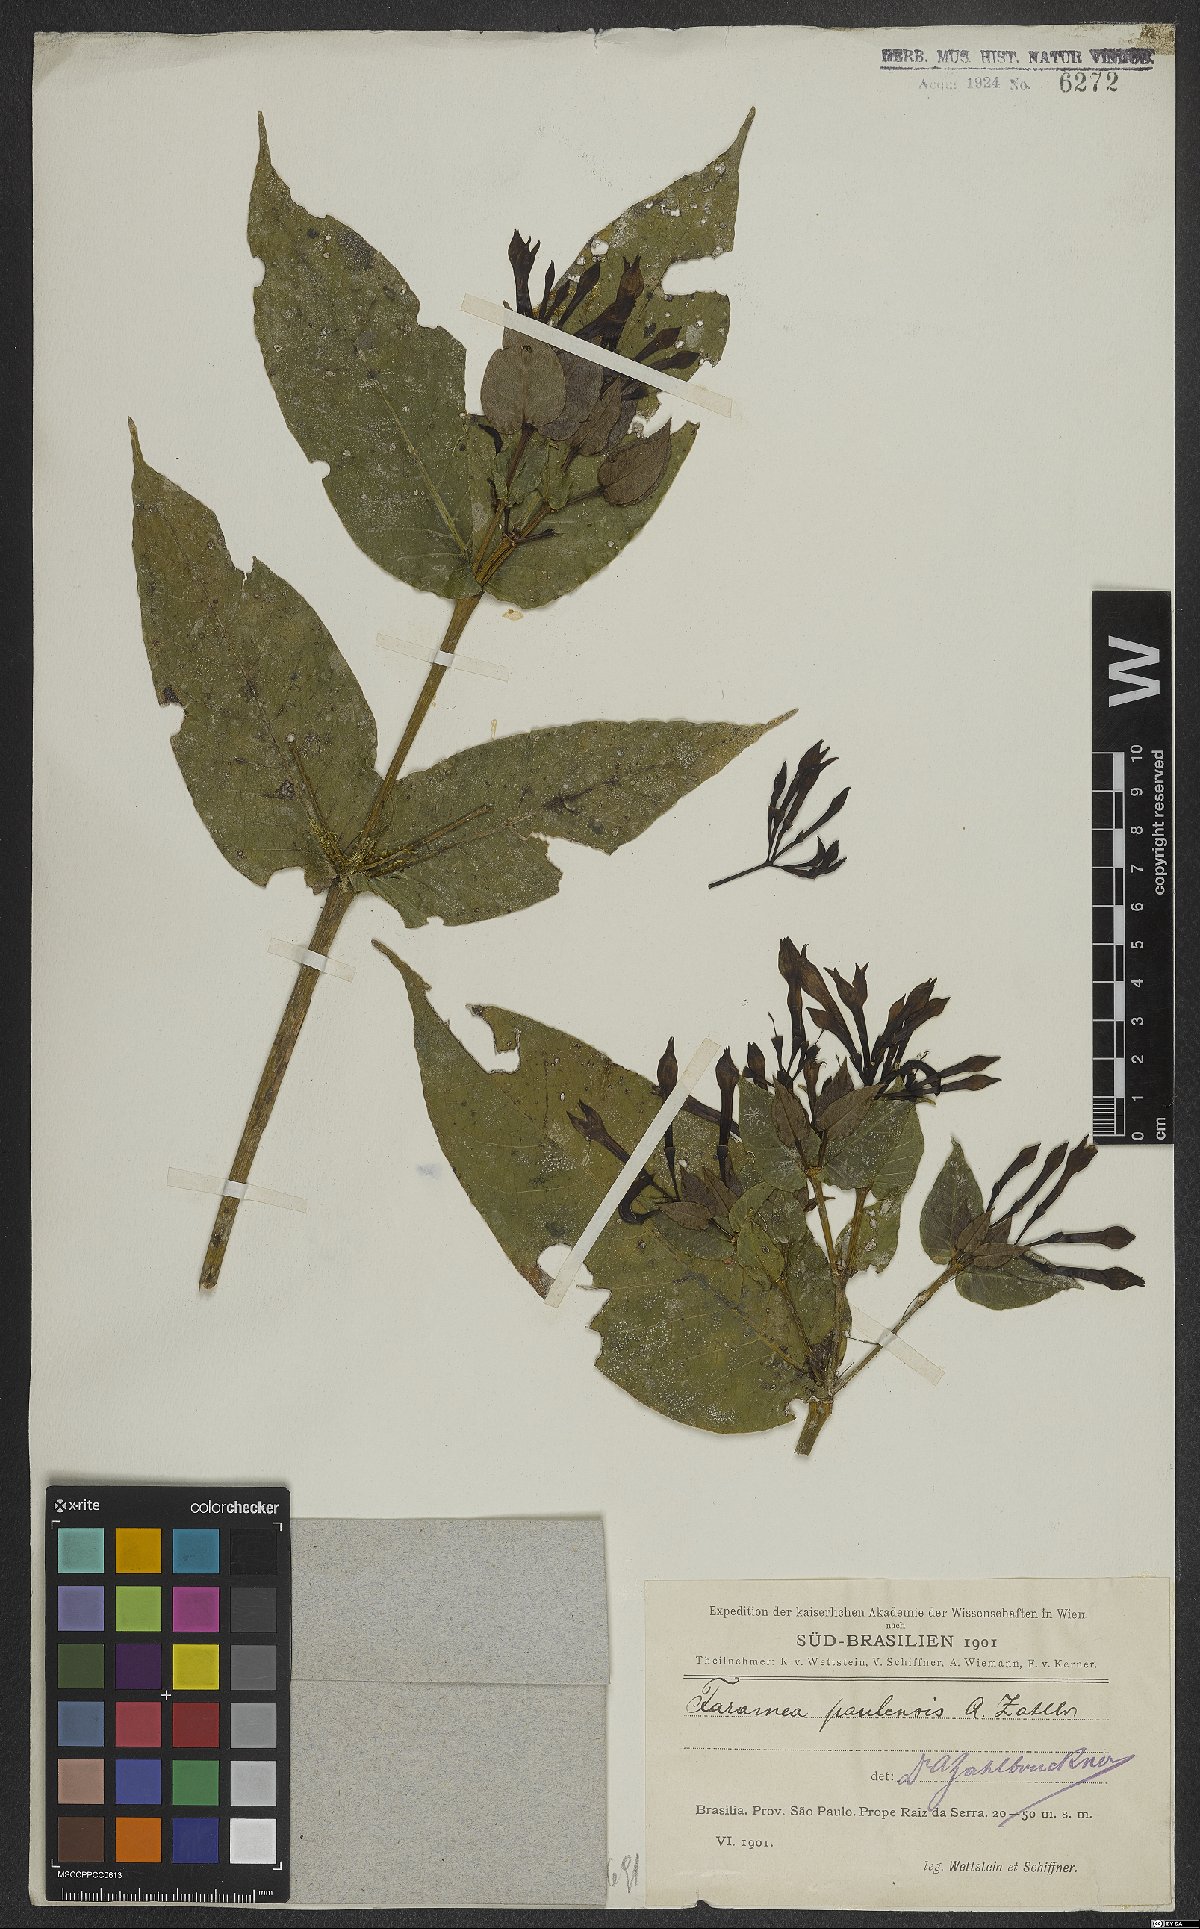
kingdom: Plantae
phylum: Tracheophyta
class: Magnoliopsida
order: Gentianales
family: Rubiaceae
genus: Faramea
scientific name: Faramea tetragona
